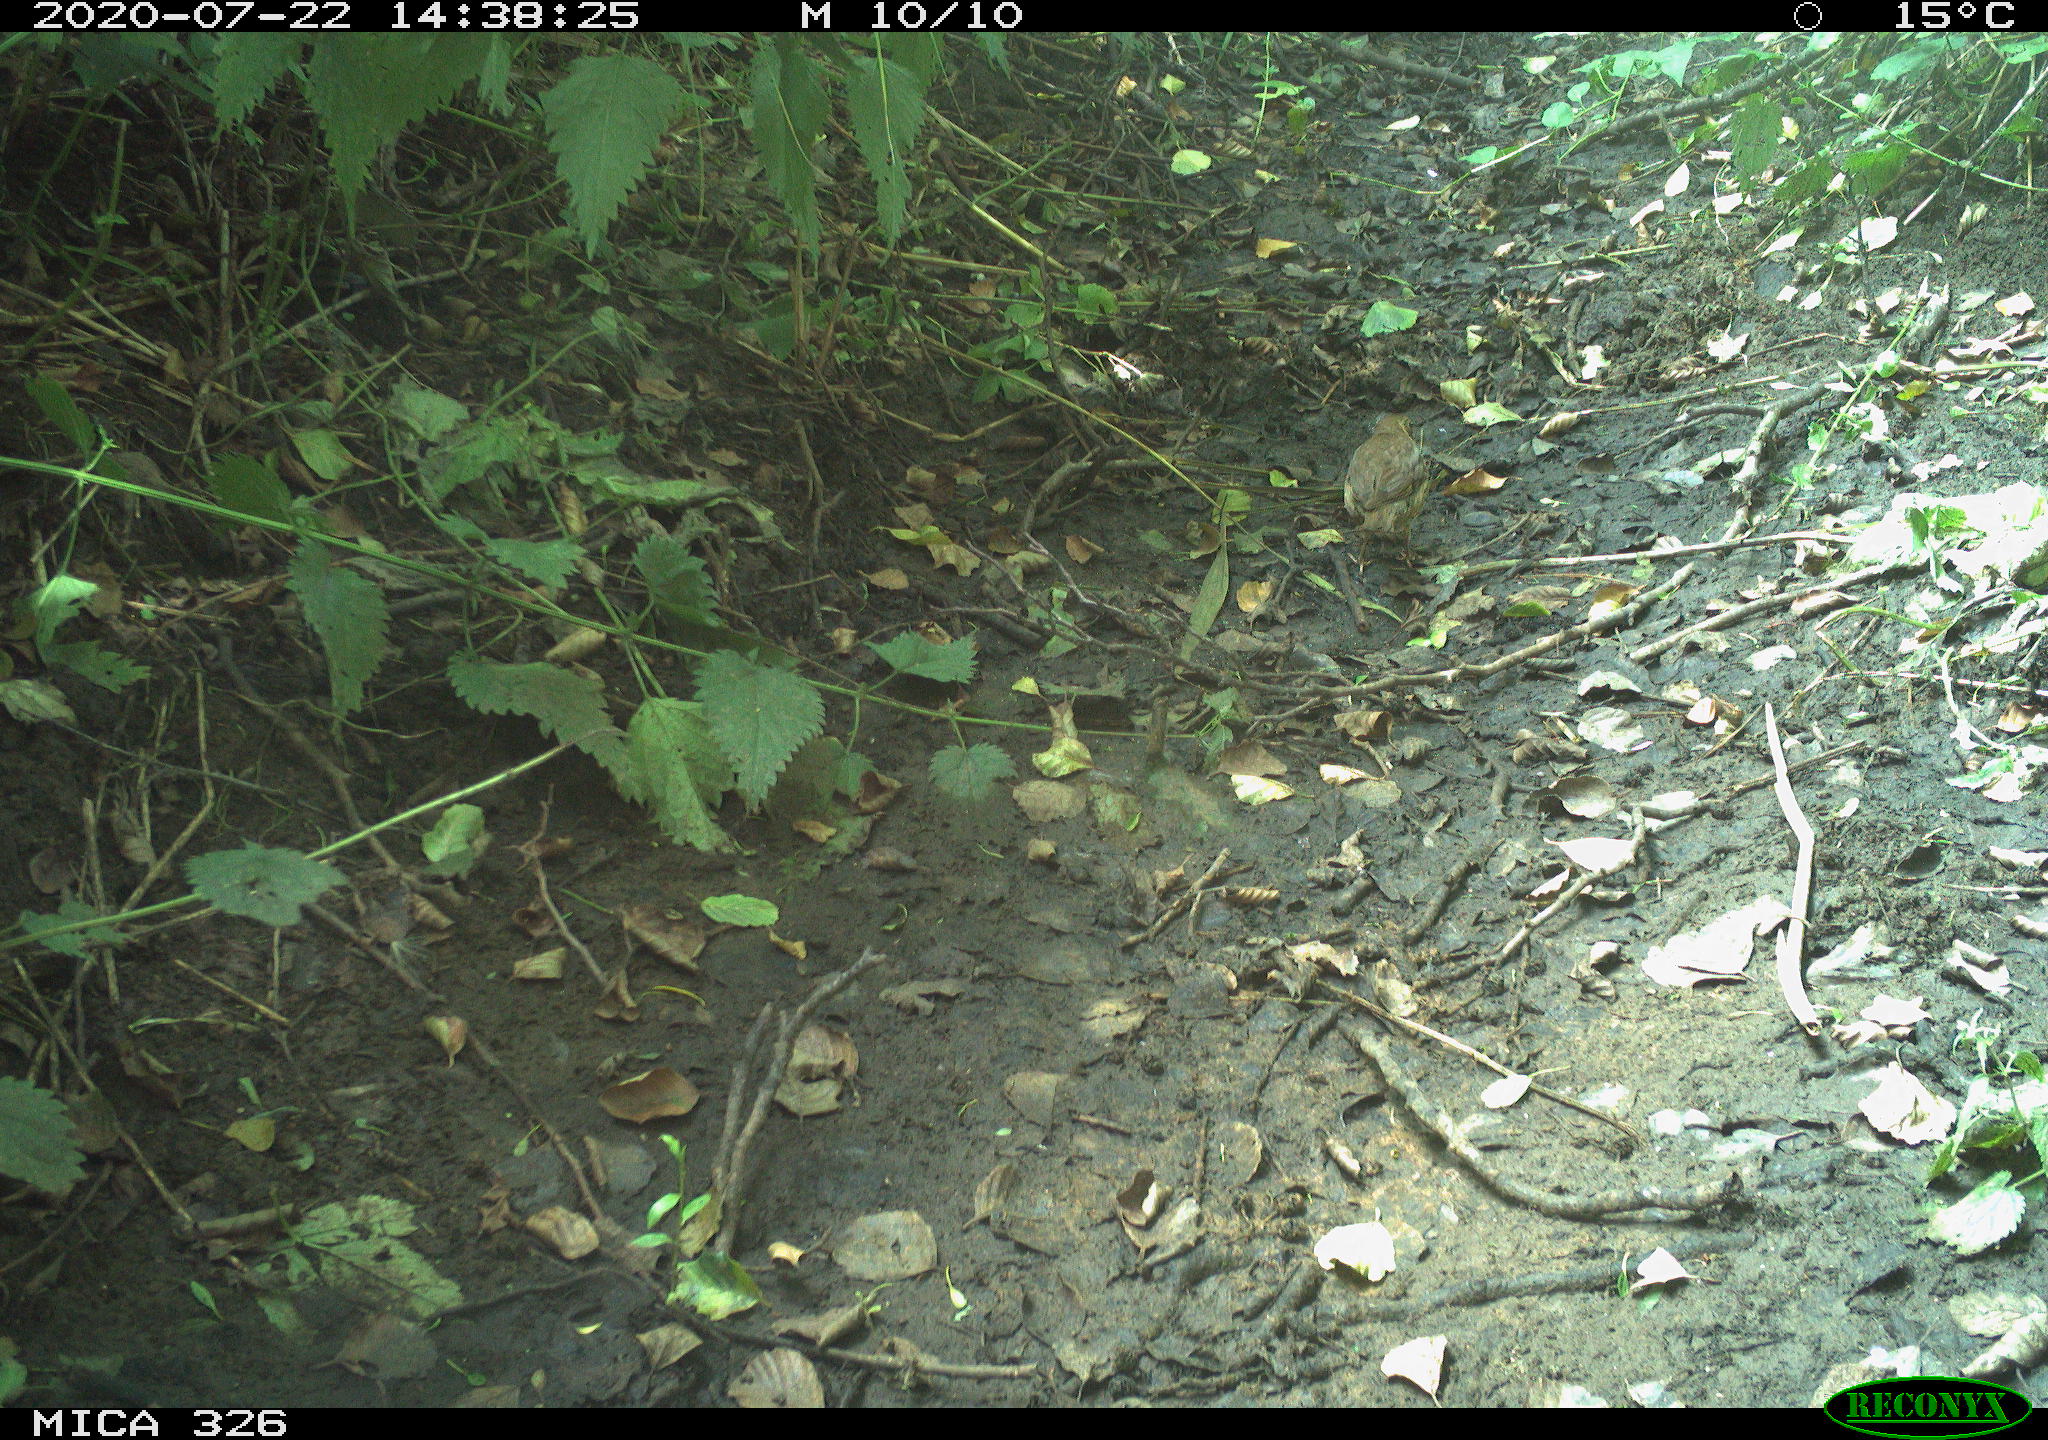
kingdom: Animalia
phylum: Chordata
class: Aves
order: Passeriformes
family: Turdidae
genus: Turdus
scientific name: Turdus philomelos
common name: Song thrush
